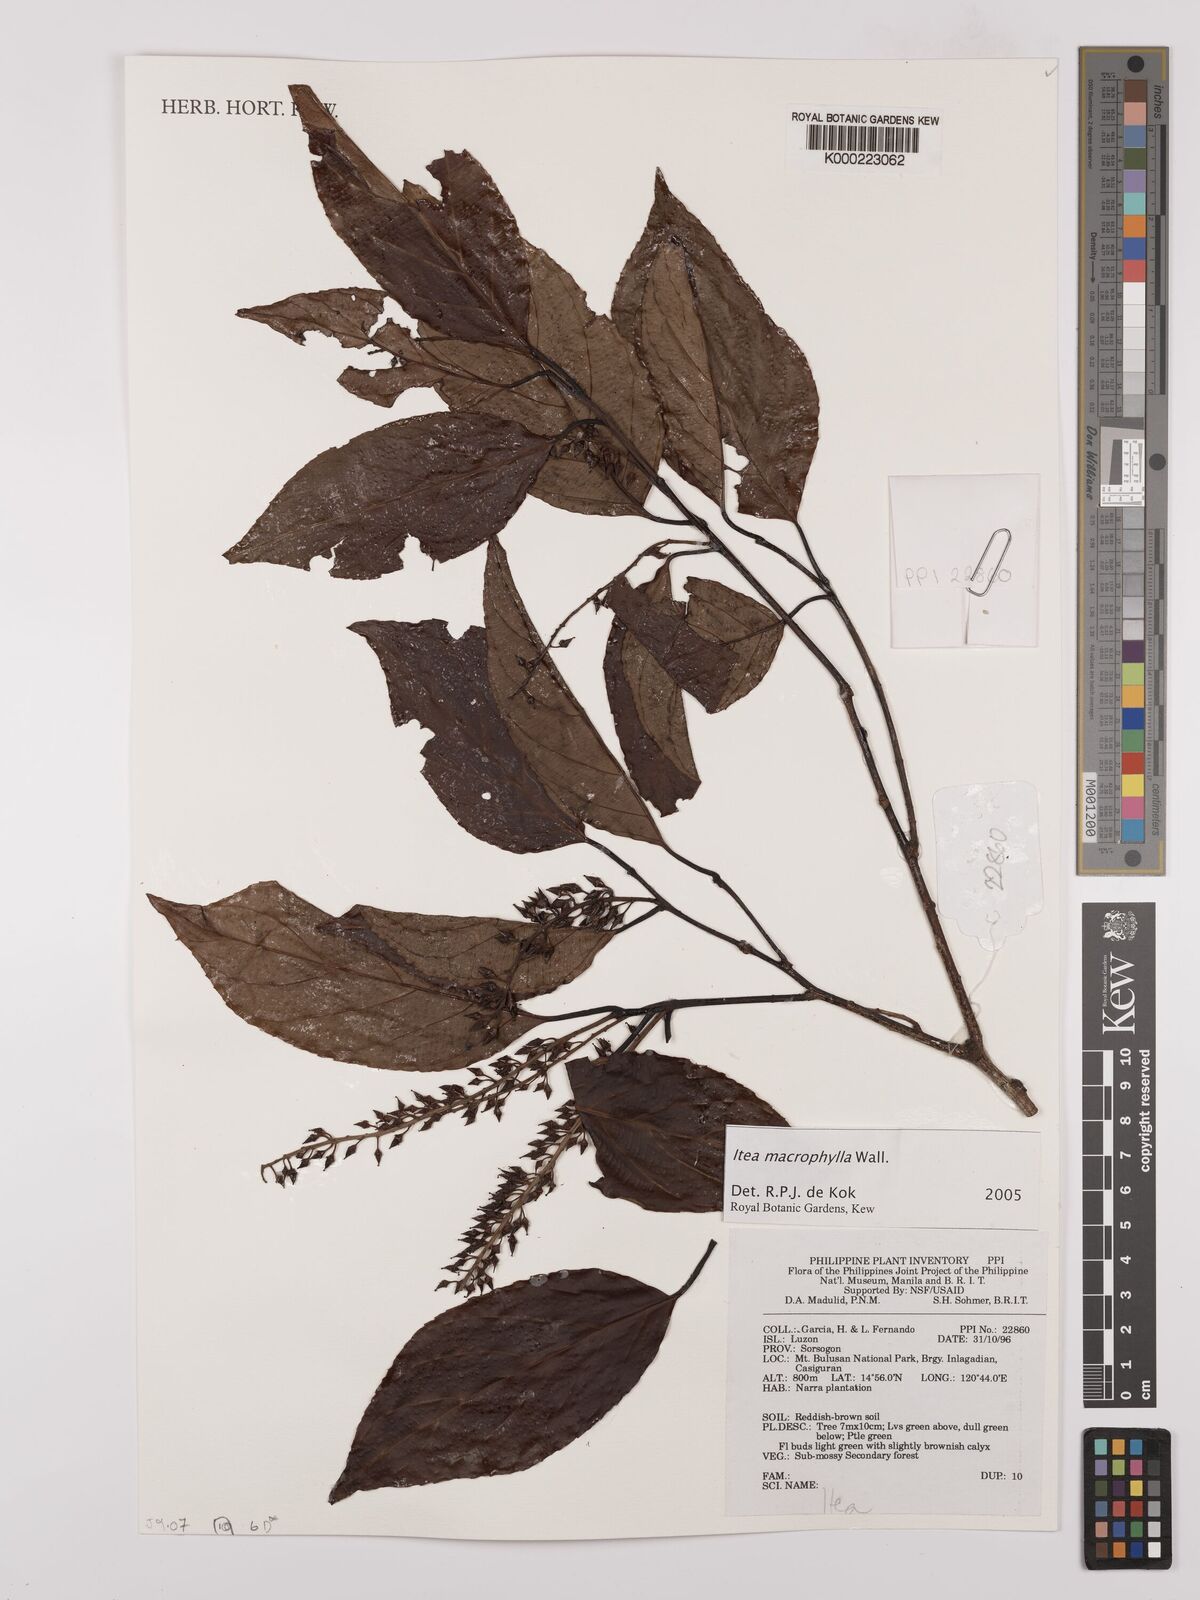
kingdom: Plantae
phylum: Tracheophyta
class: Magnoliopsida
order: Saxifragales
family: Iteaceae
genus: Itea
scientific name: Itea macrophylla
